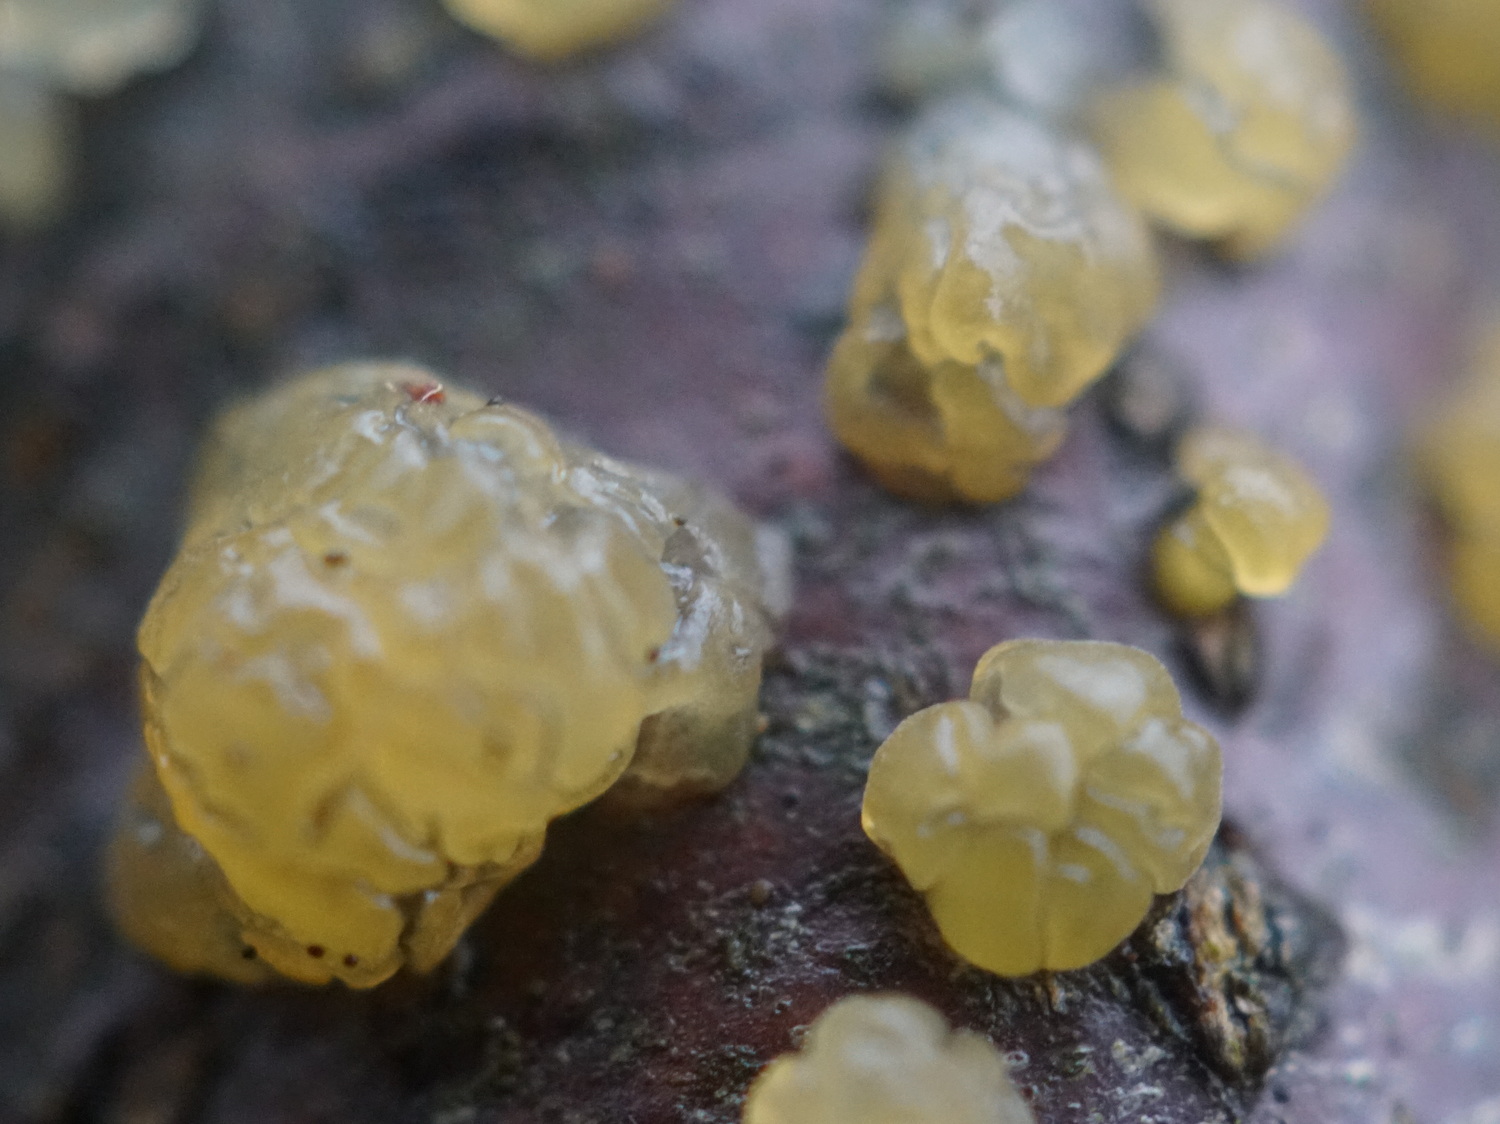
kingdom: Fungi
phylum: Basidiomycota
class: Dacrymycetes
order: Dacrymycetales
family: Dacrymycetaceae
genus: Dacrymyces
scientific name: Dacrymyces lacrymalis
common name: rynket tåresvamp
